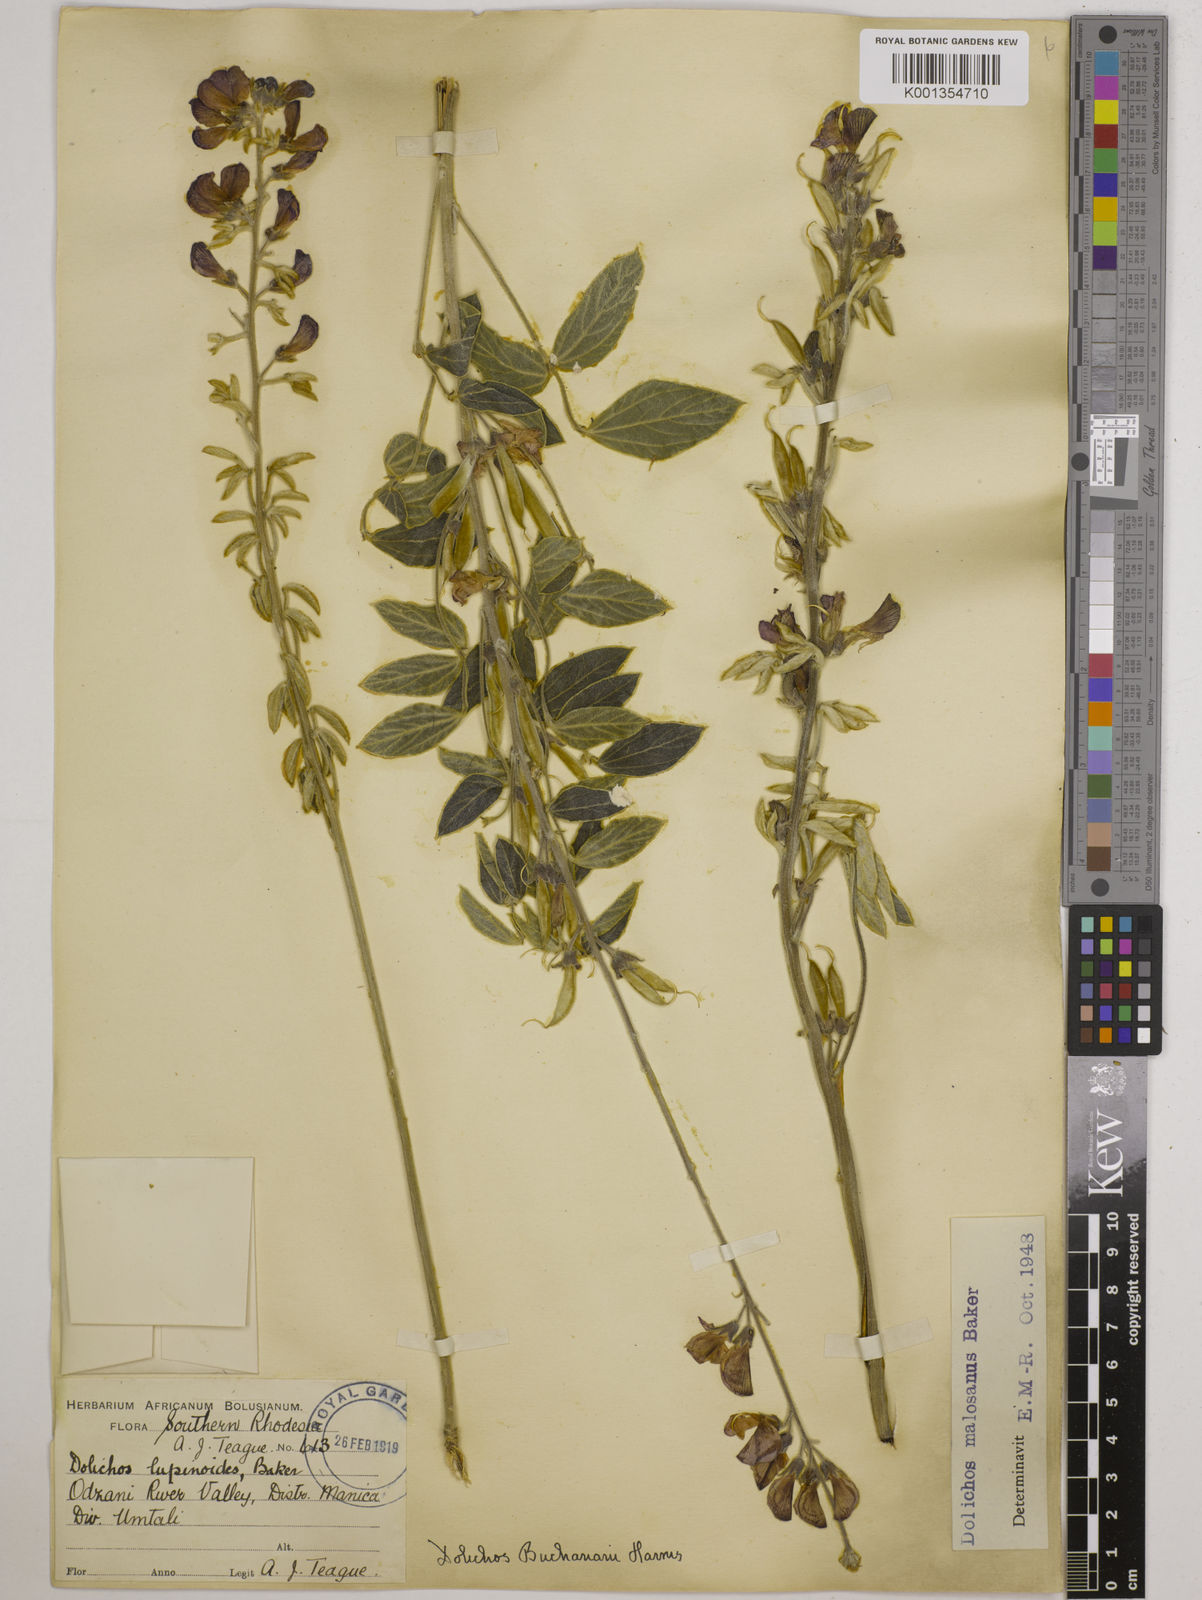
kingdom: Plantae
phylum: Tracheophyta
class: Magnoliopsida
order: Fabales
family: Fabaceae
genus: Dolichos
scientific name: Dolichos kilimandscharicus
